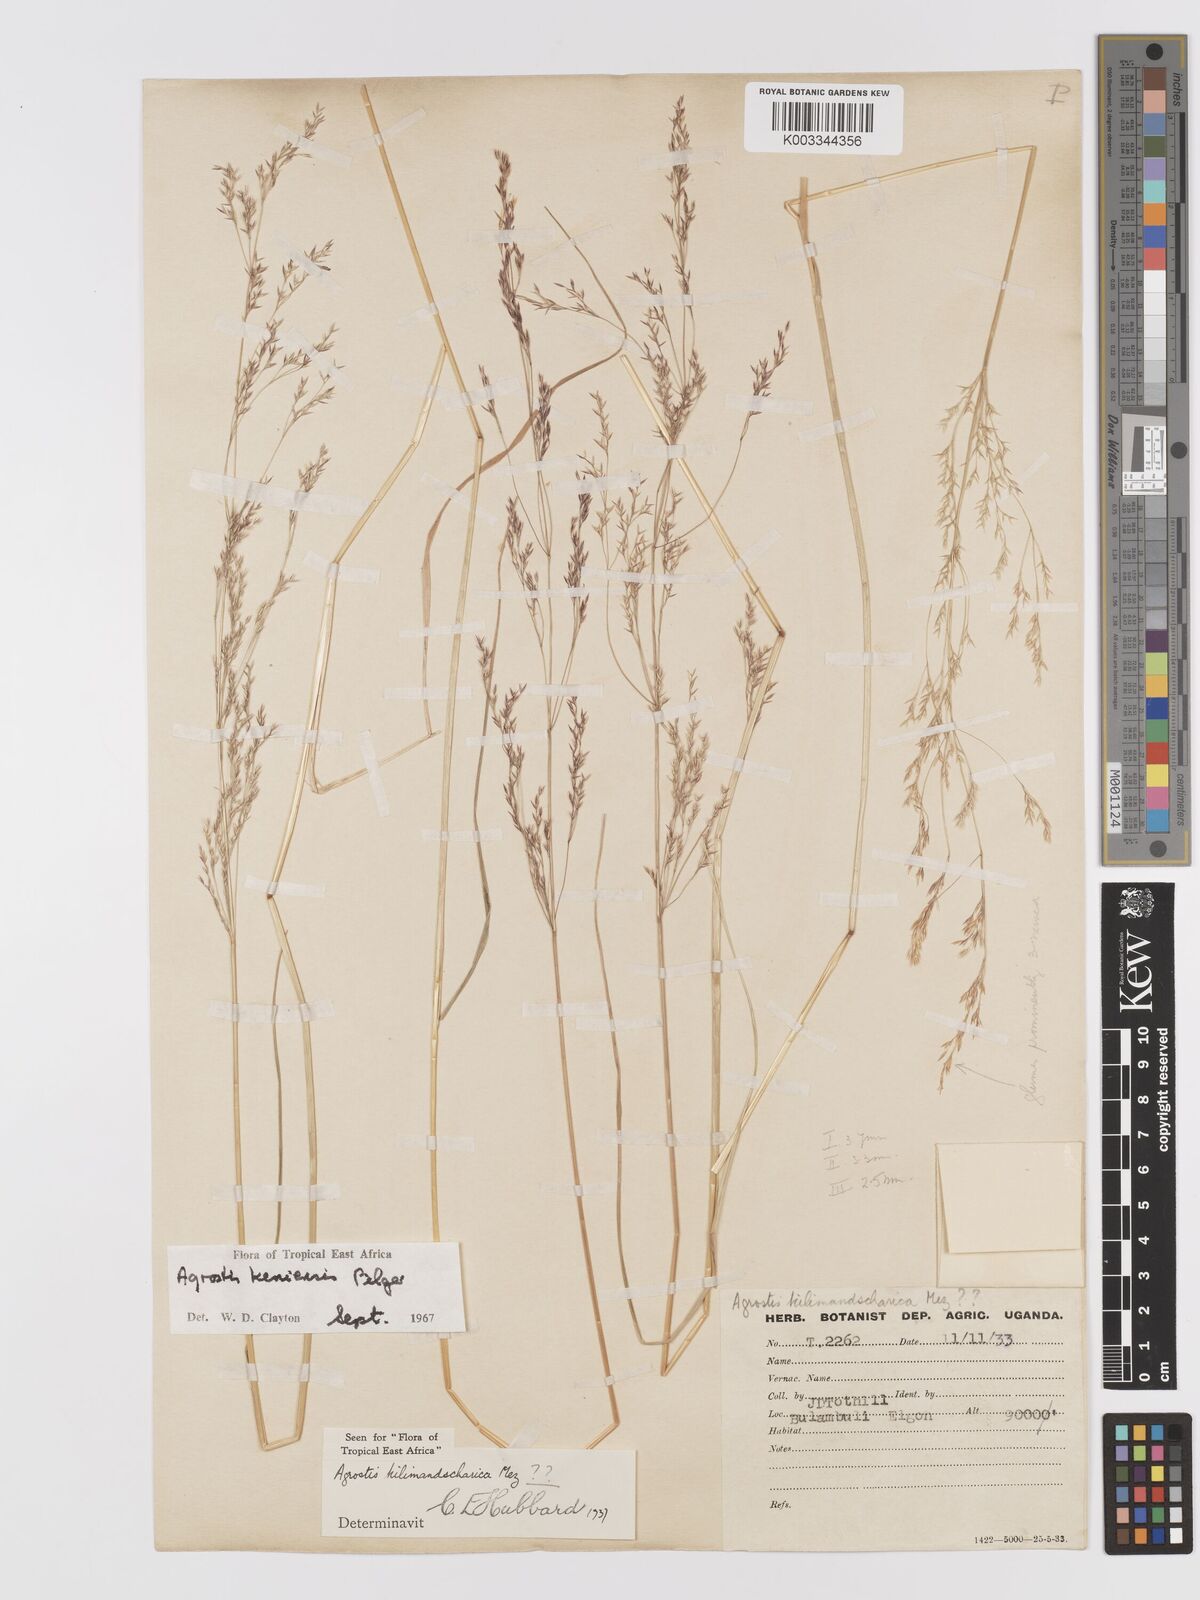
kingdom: Plantae
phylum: Tracheophyta
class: Liliopsida
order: Poales
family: Poaceae
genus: Agrostis
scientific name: Agrostis keniensis
